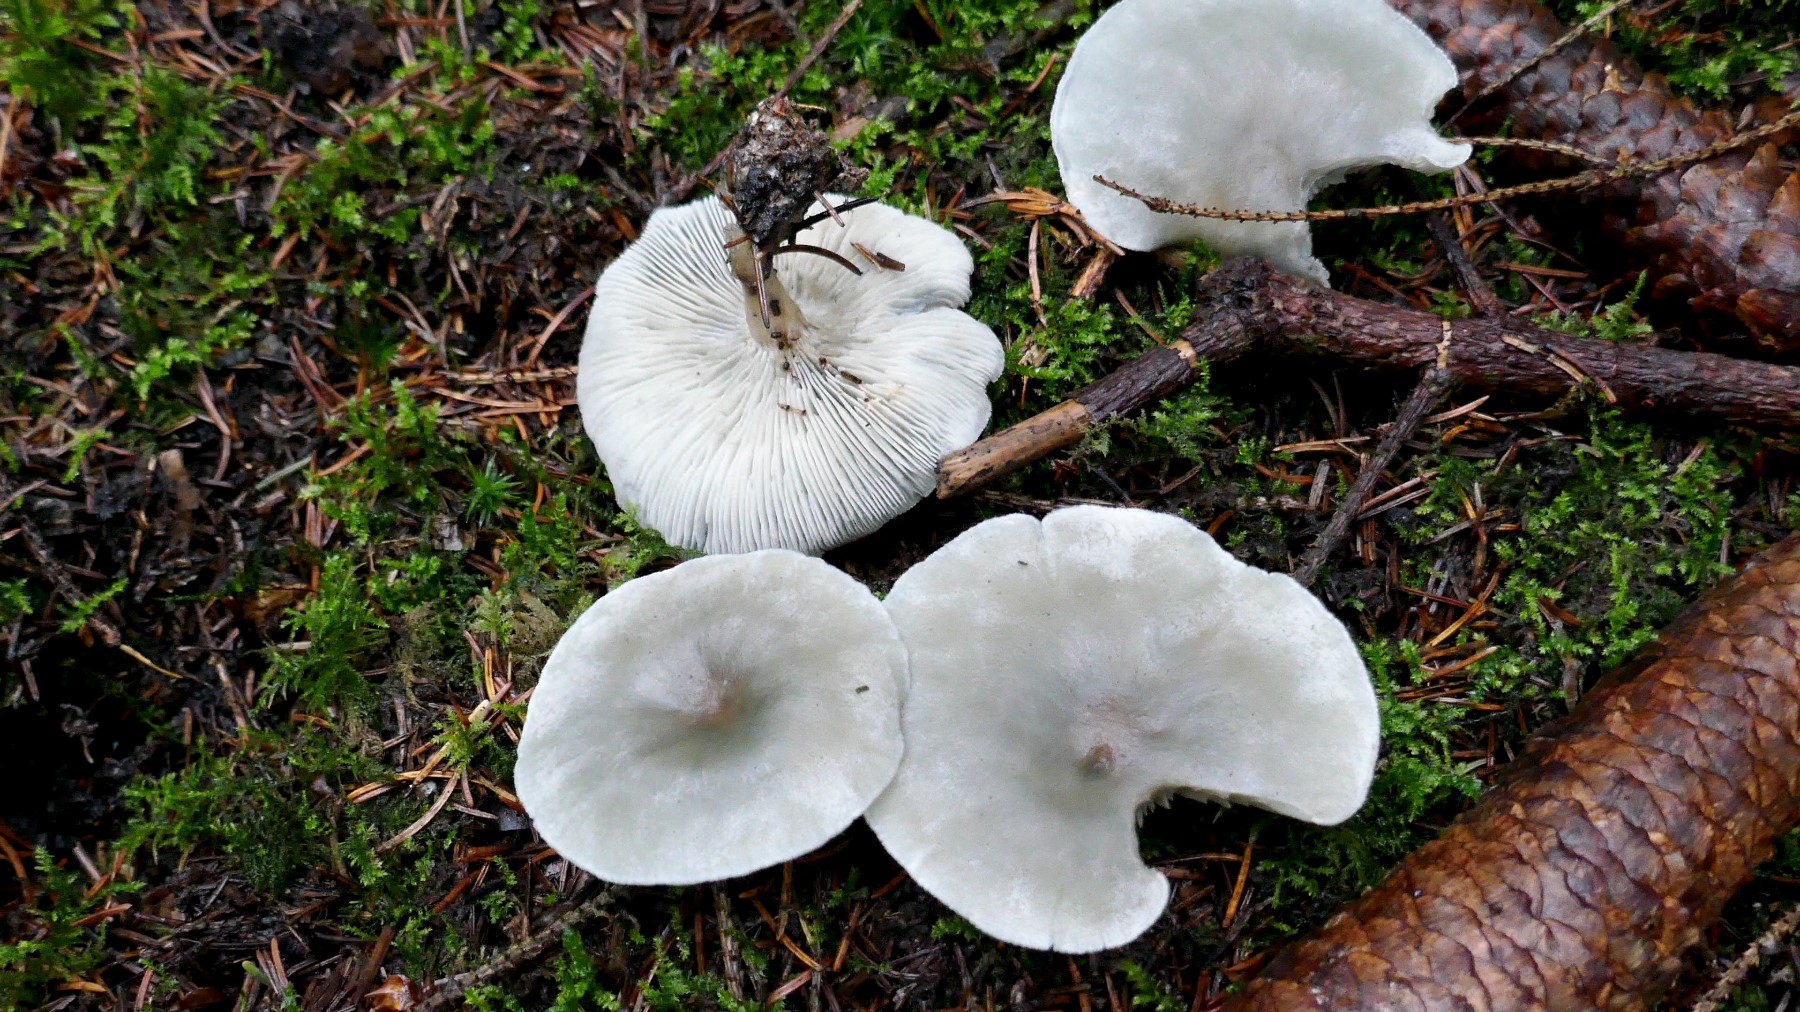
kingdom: Fungi
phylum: Basidiomycota
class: Agaricomycetes
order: Agaricales
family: Tricholomataceae
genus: Clitocybe
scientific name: Clitocybe odora
